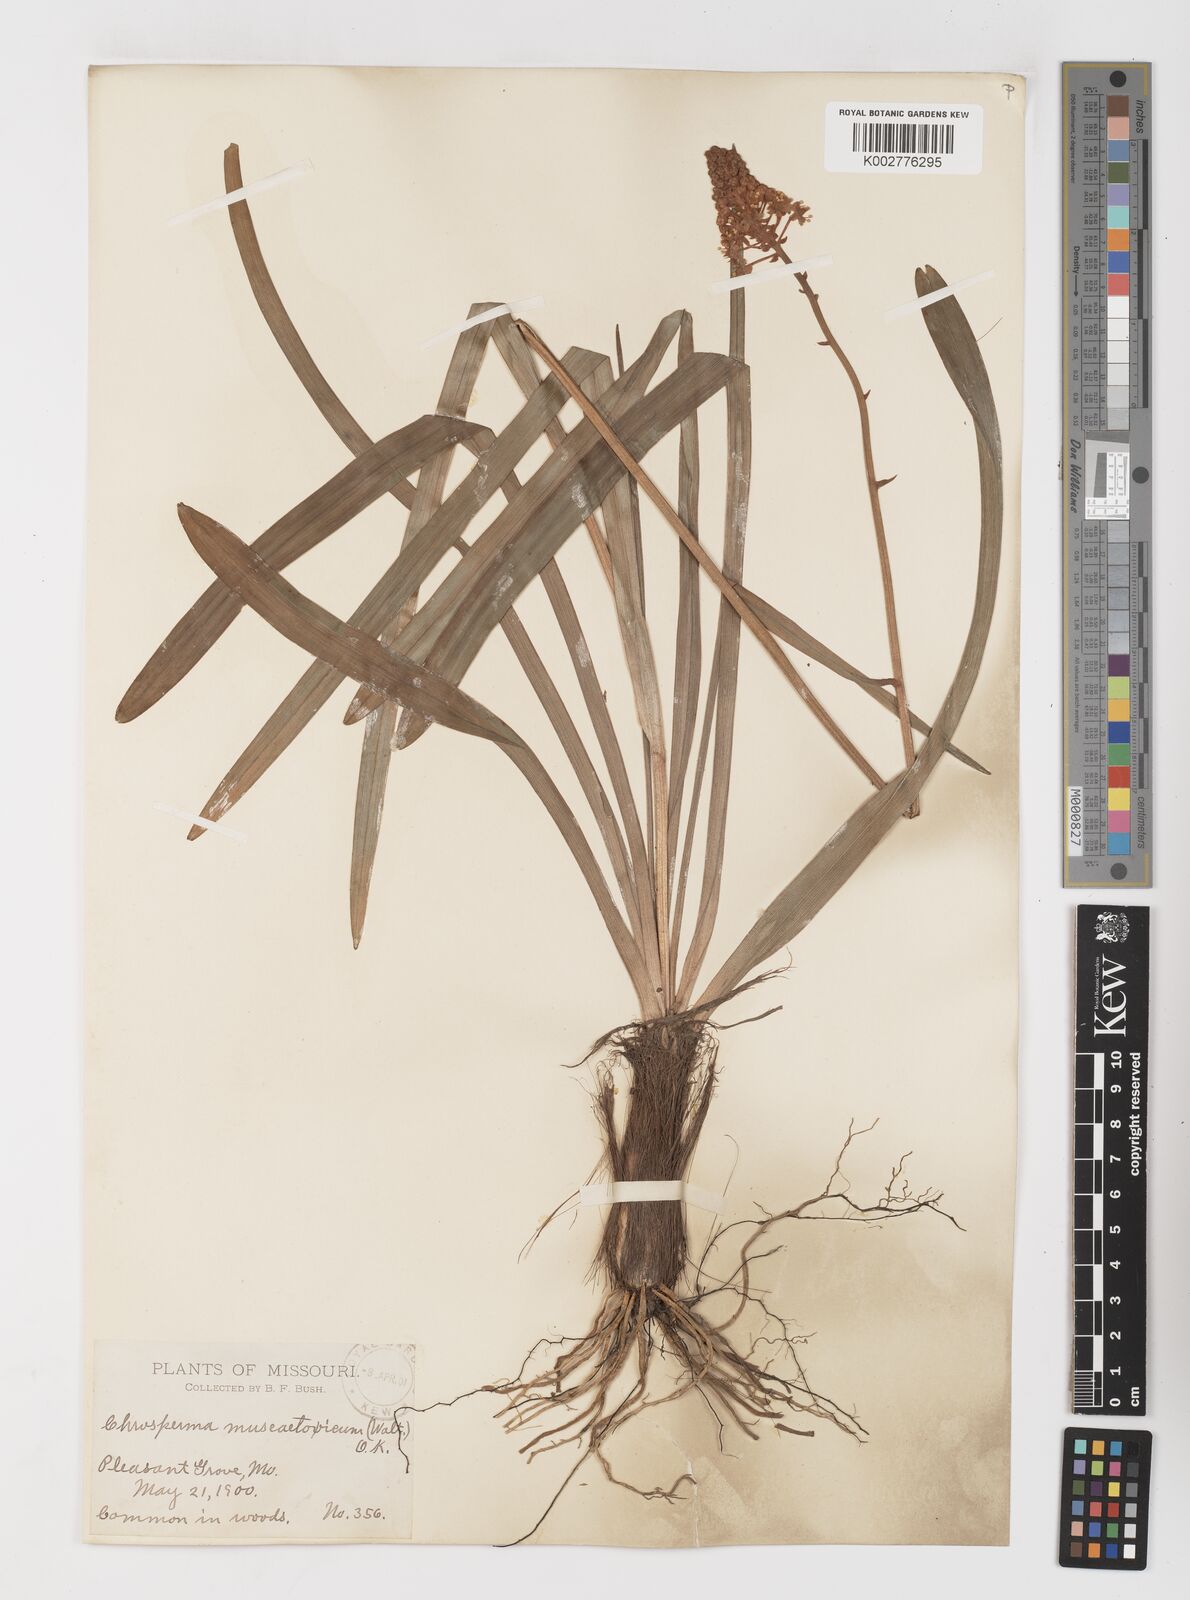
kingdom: Plantae
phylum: Tracheophyta
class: Liliopsida
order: Liliales
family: Melanthiaceae
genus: Amianthium
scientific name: Amianthium muscitoxicum
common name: Fly-poison
